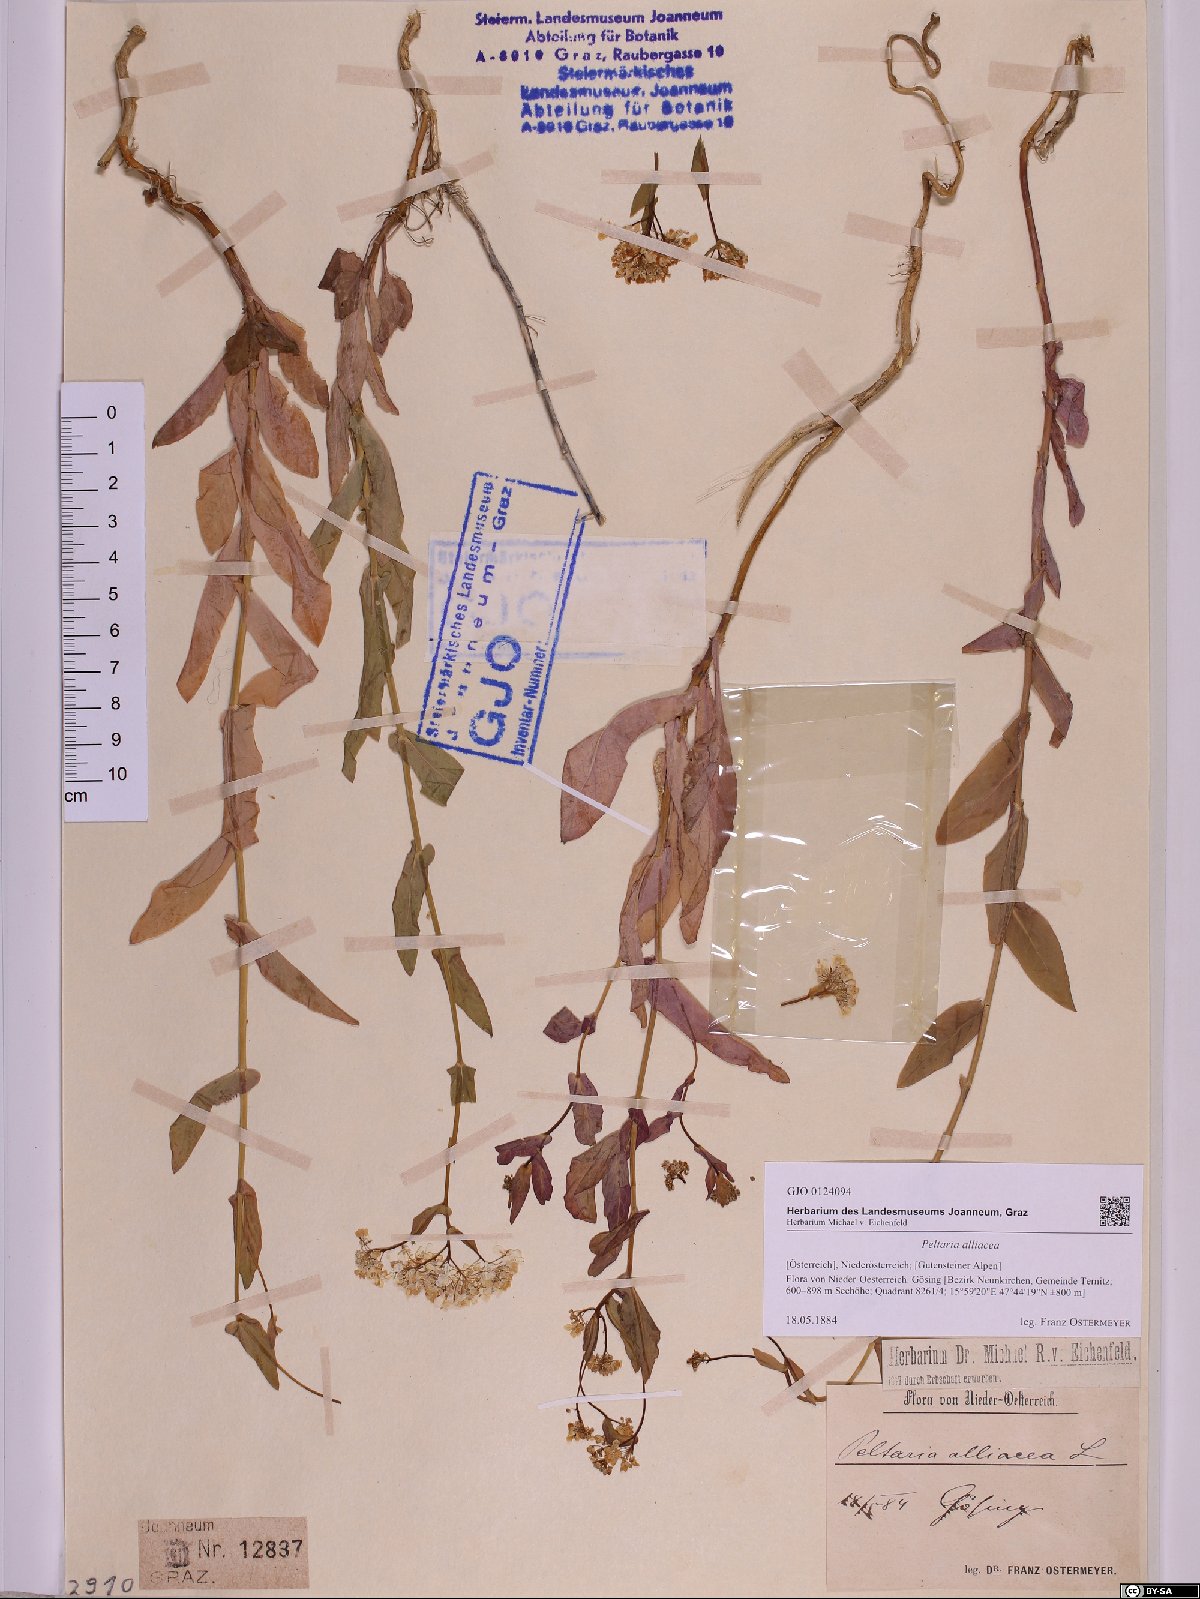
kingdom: Plantae
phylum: Tracheophyta
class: Magnoliopsida
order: Brassicales
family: Brassicaceae
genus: Peltaria
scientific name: Peltaria alliacea
